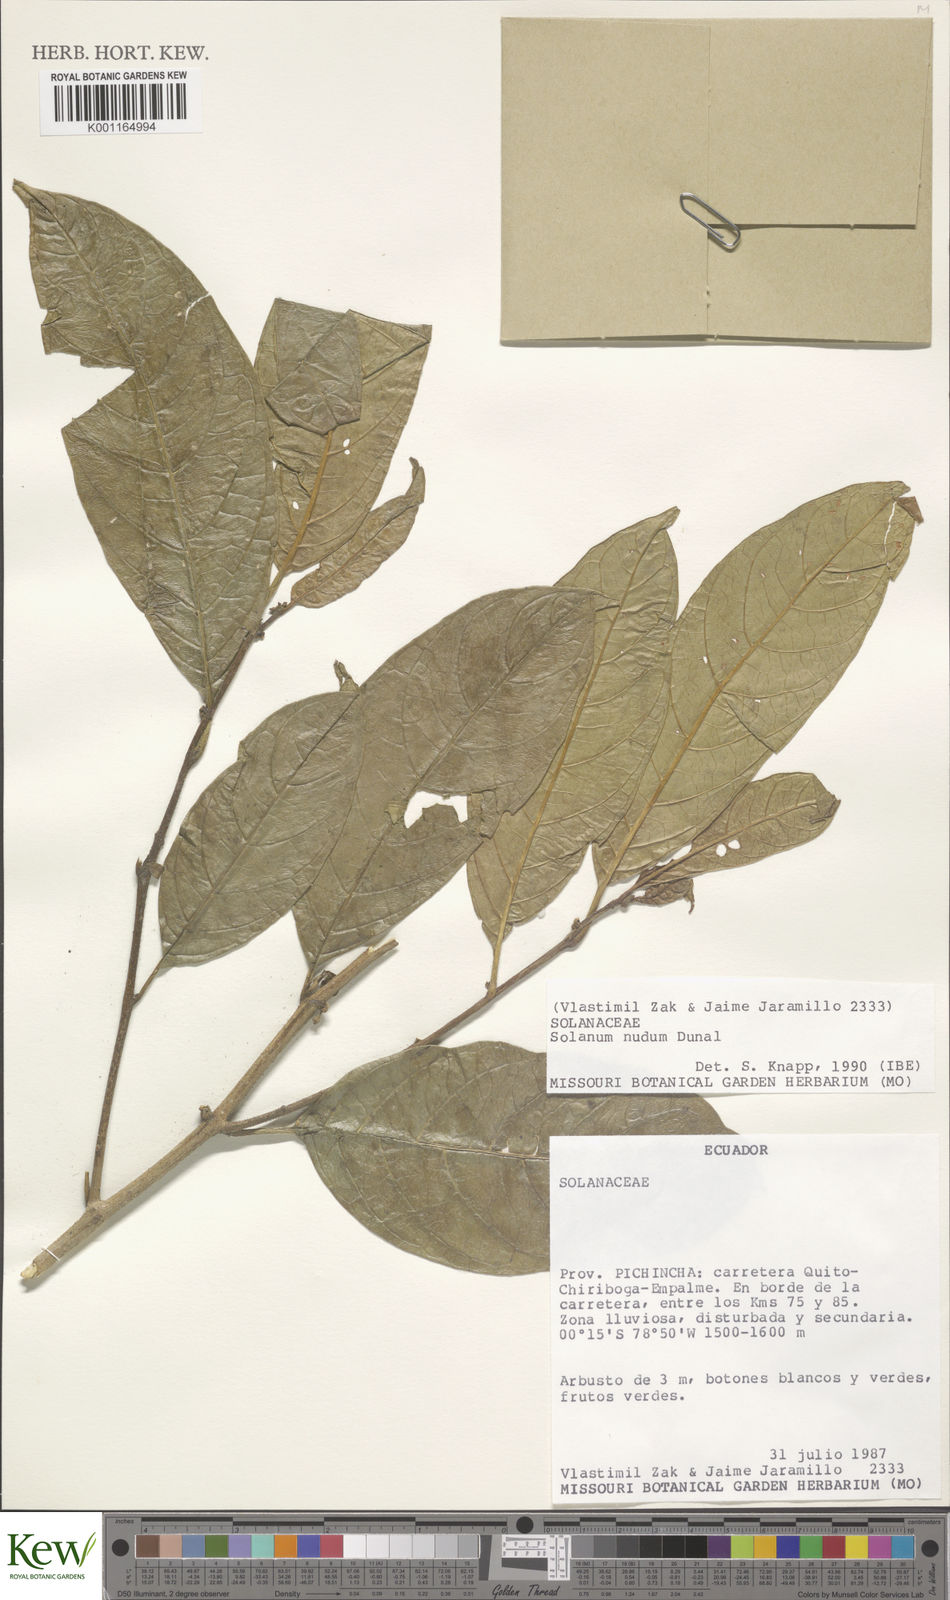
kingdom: Plantae
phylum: Tracheophyta
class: Magnoliopsida
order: Solanales
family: Solanaceae
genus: Solanum
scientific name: Solanum nudum
